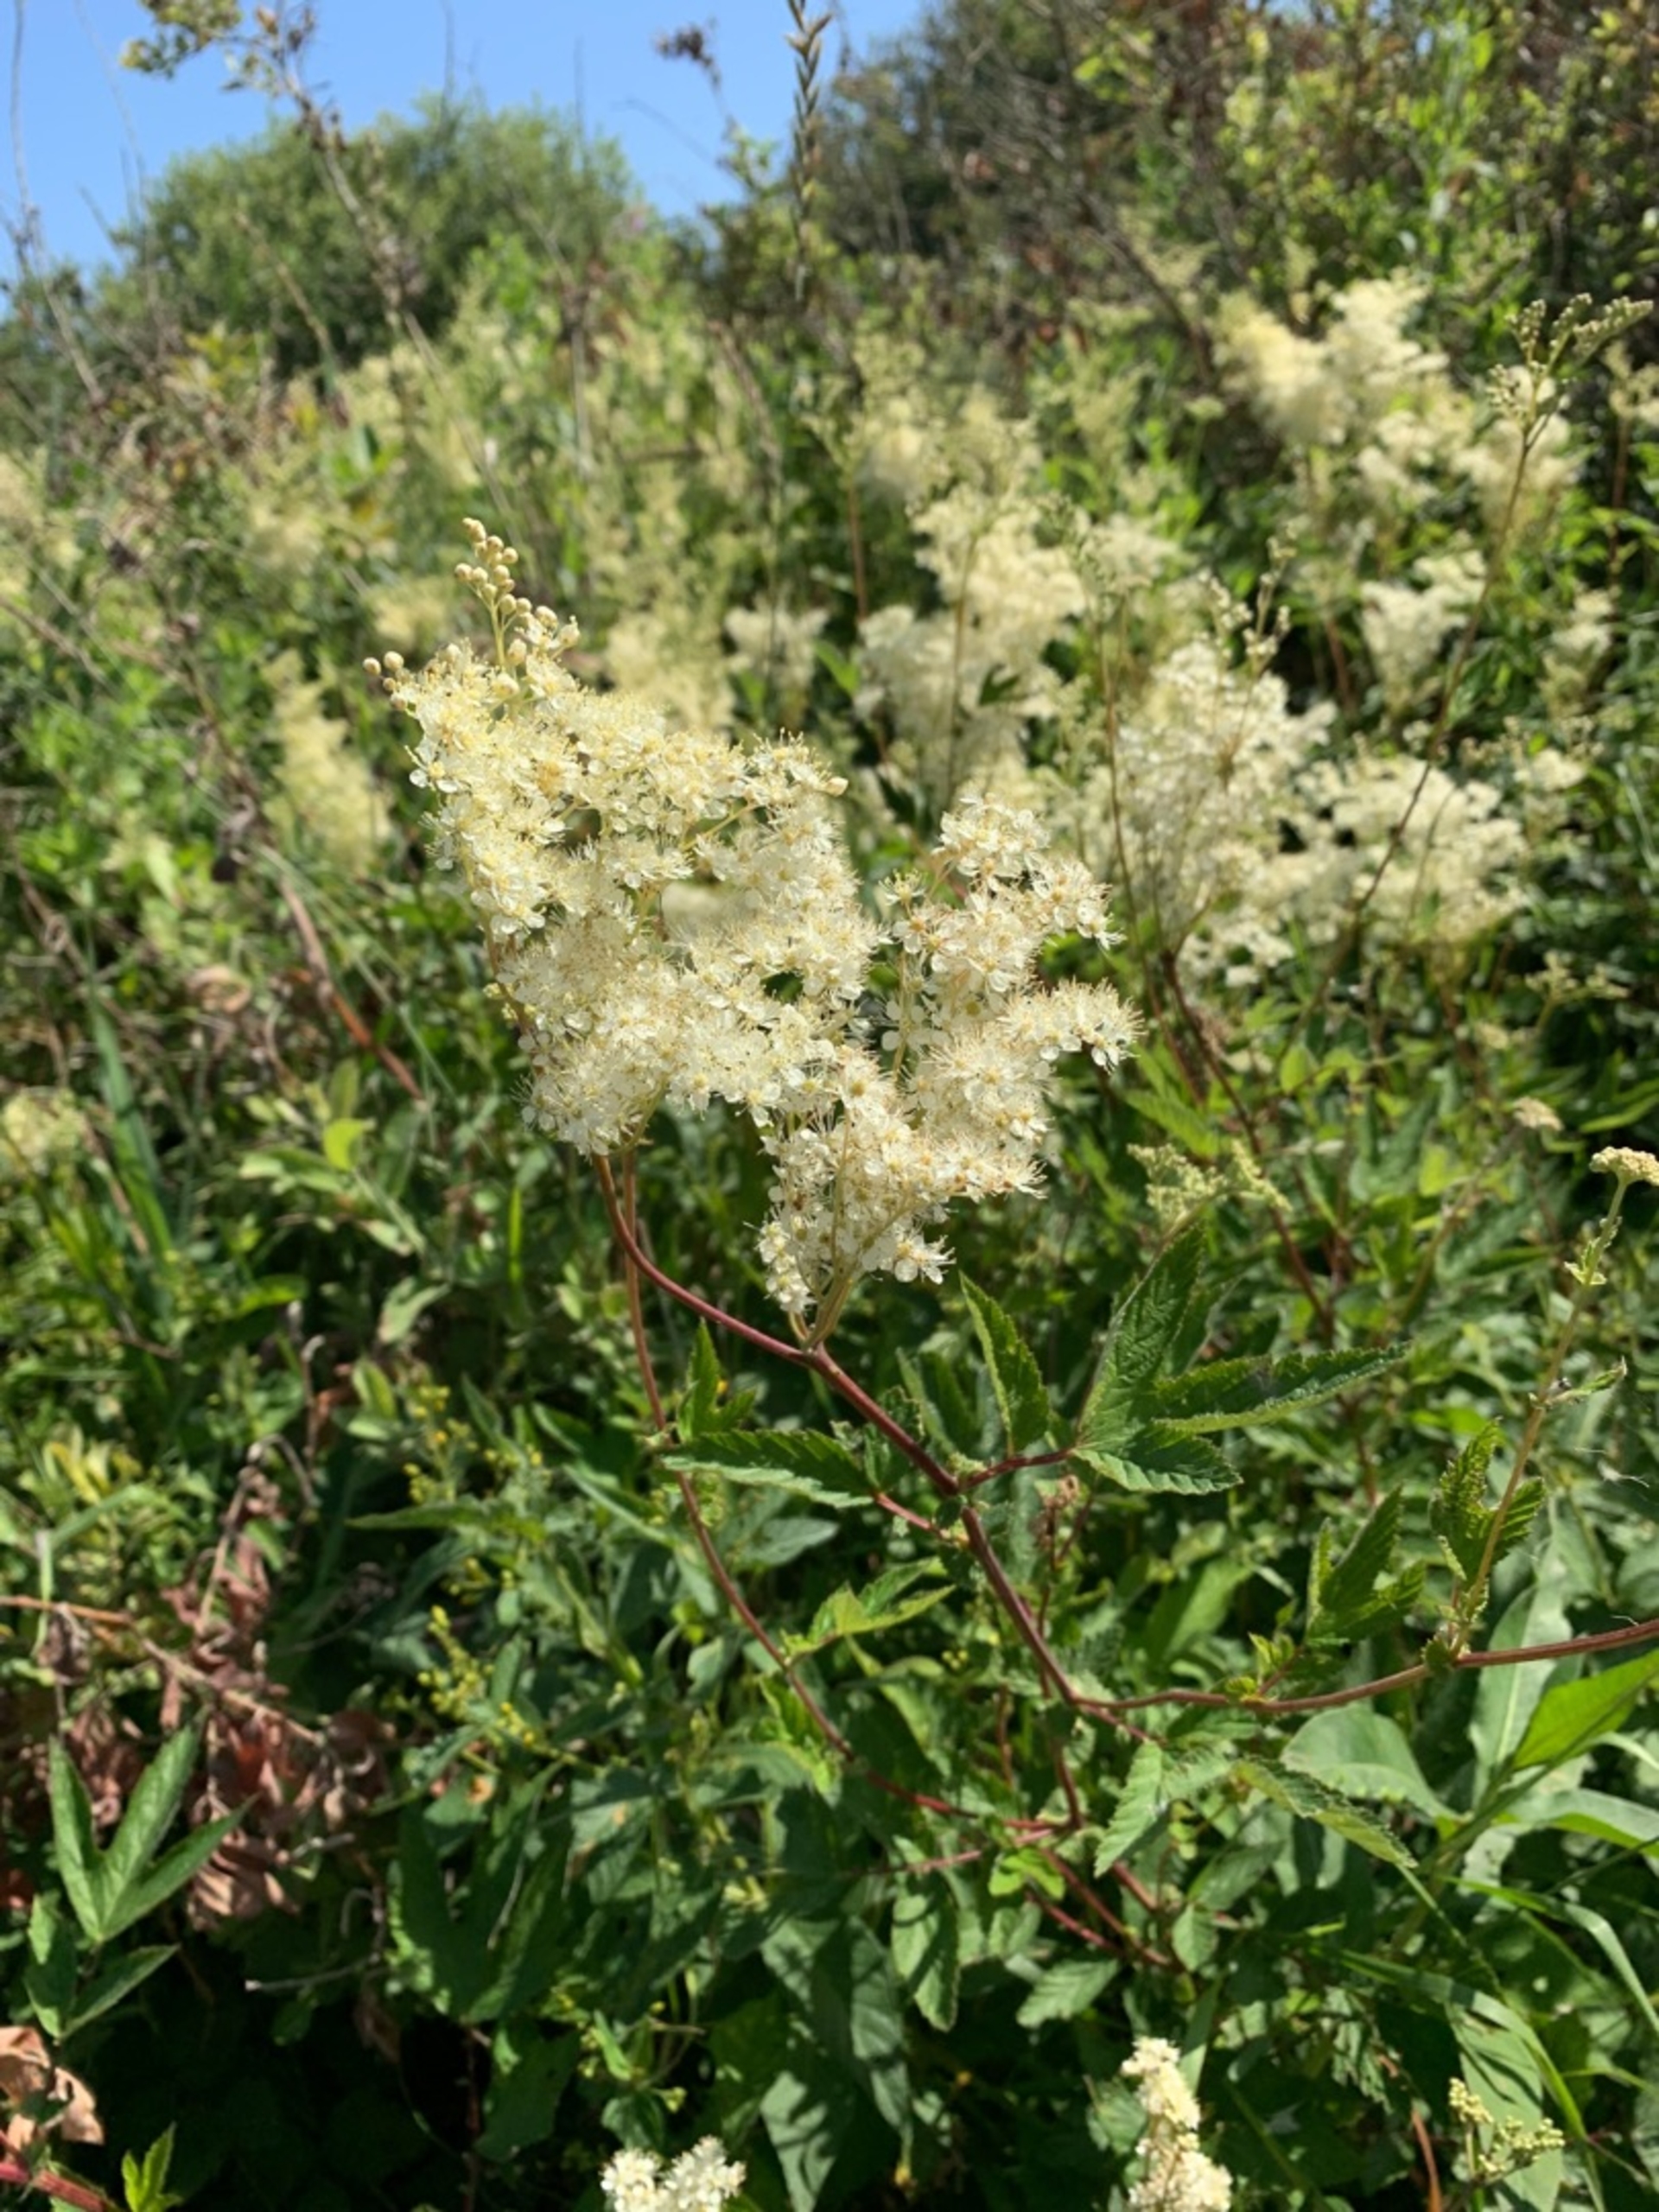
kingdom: Plantae
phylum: Tracheophyta
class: Magnoliopsida
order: Rosales
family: Rosaceae
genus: Filipendula
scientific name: Filipendula ulmaria
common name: Almindelig mjødurt
